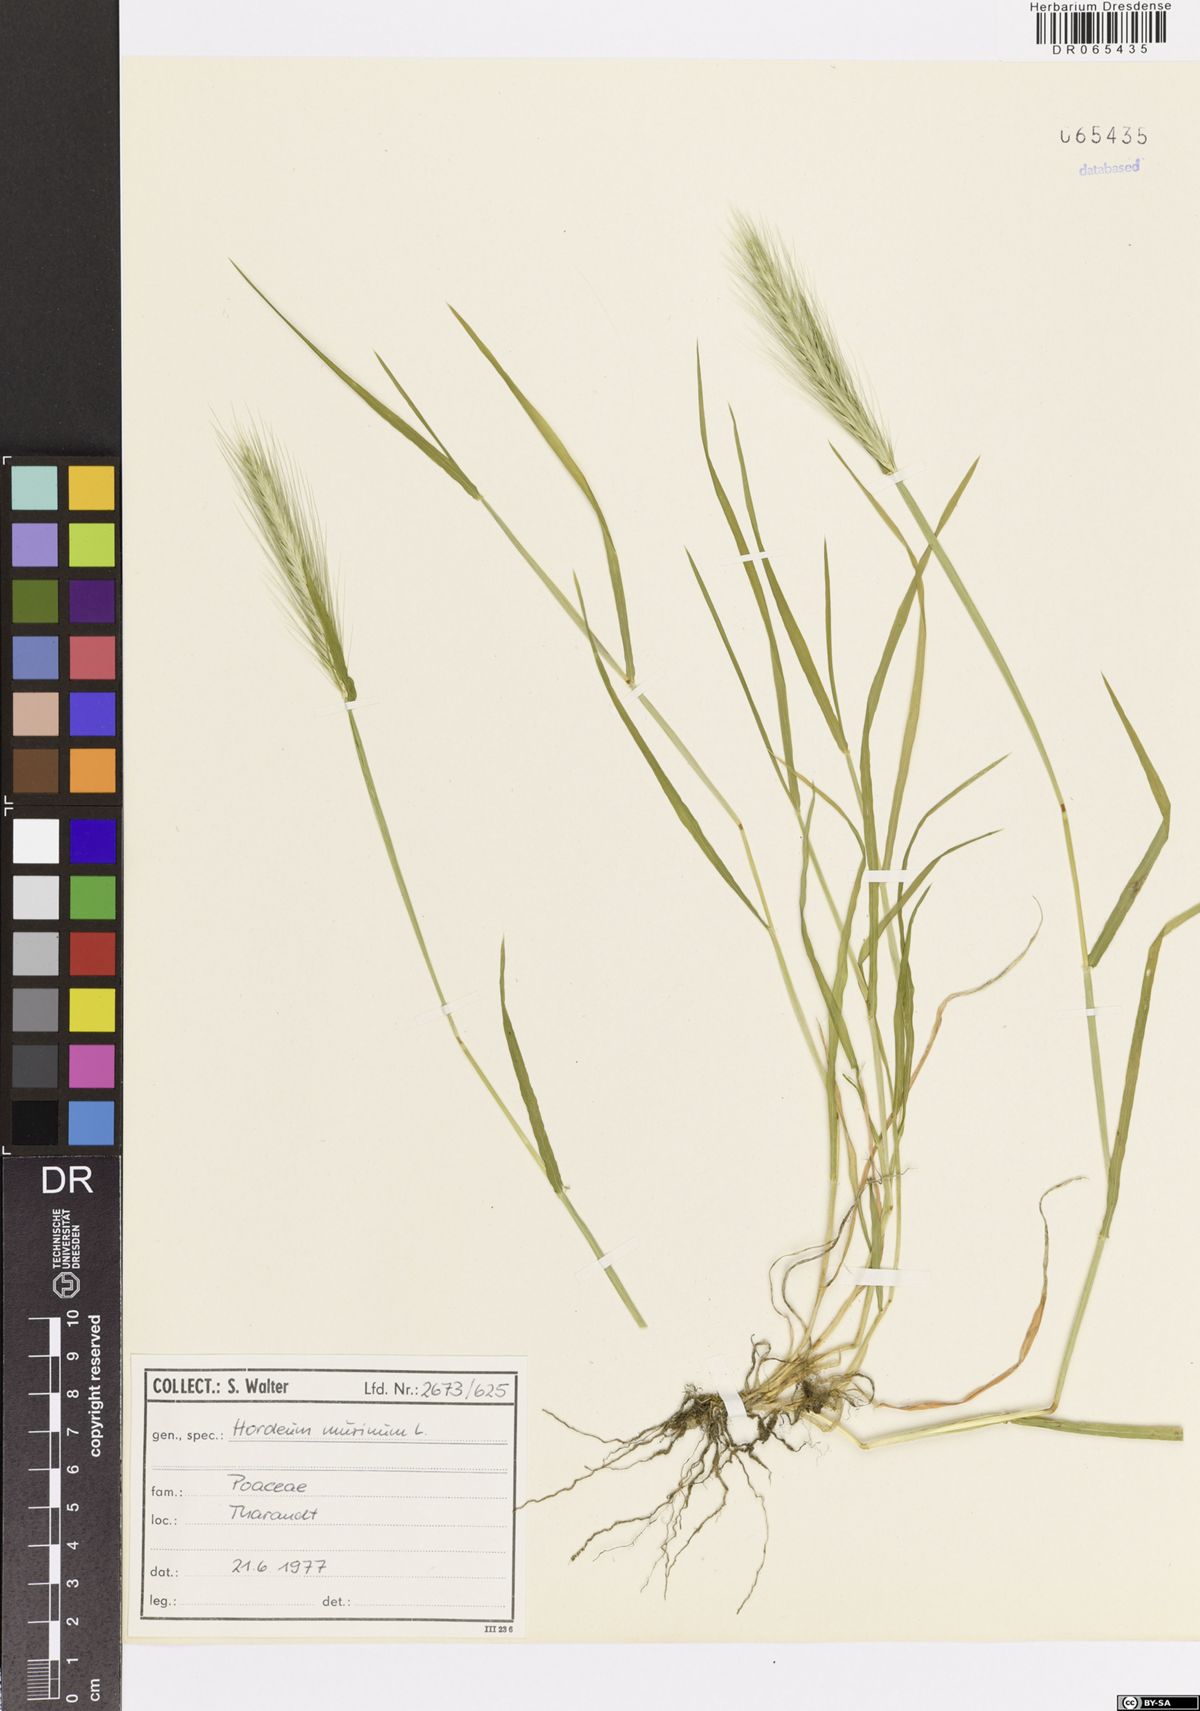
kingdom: Plantae
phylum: Tracheophyta
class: Liliopsida
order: Poales
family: Poaceae
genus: Hordeum
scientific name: Hordeum murinum
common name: Wall barley
